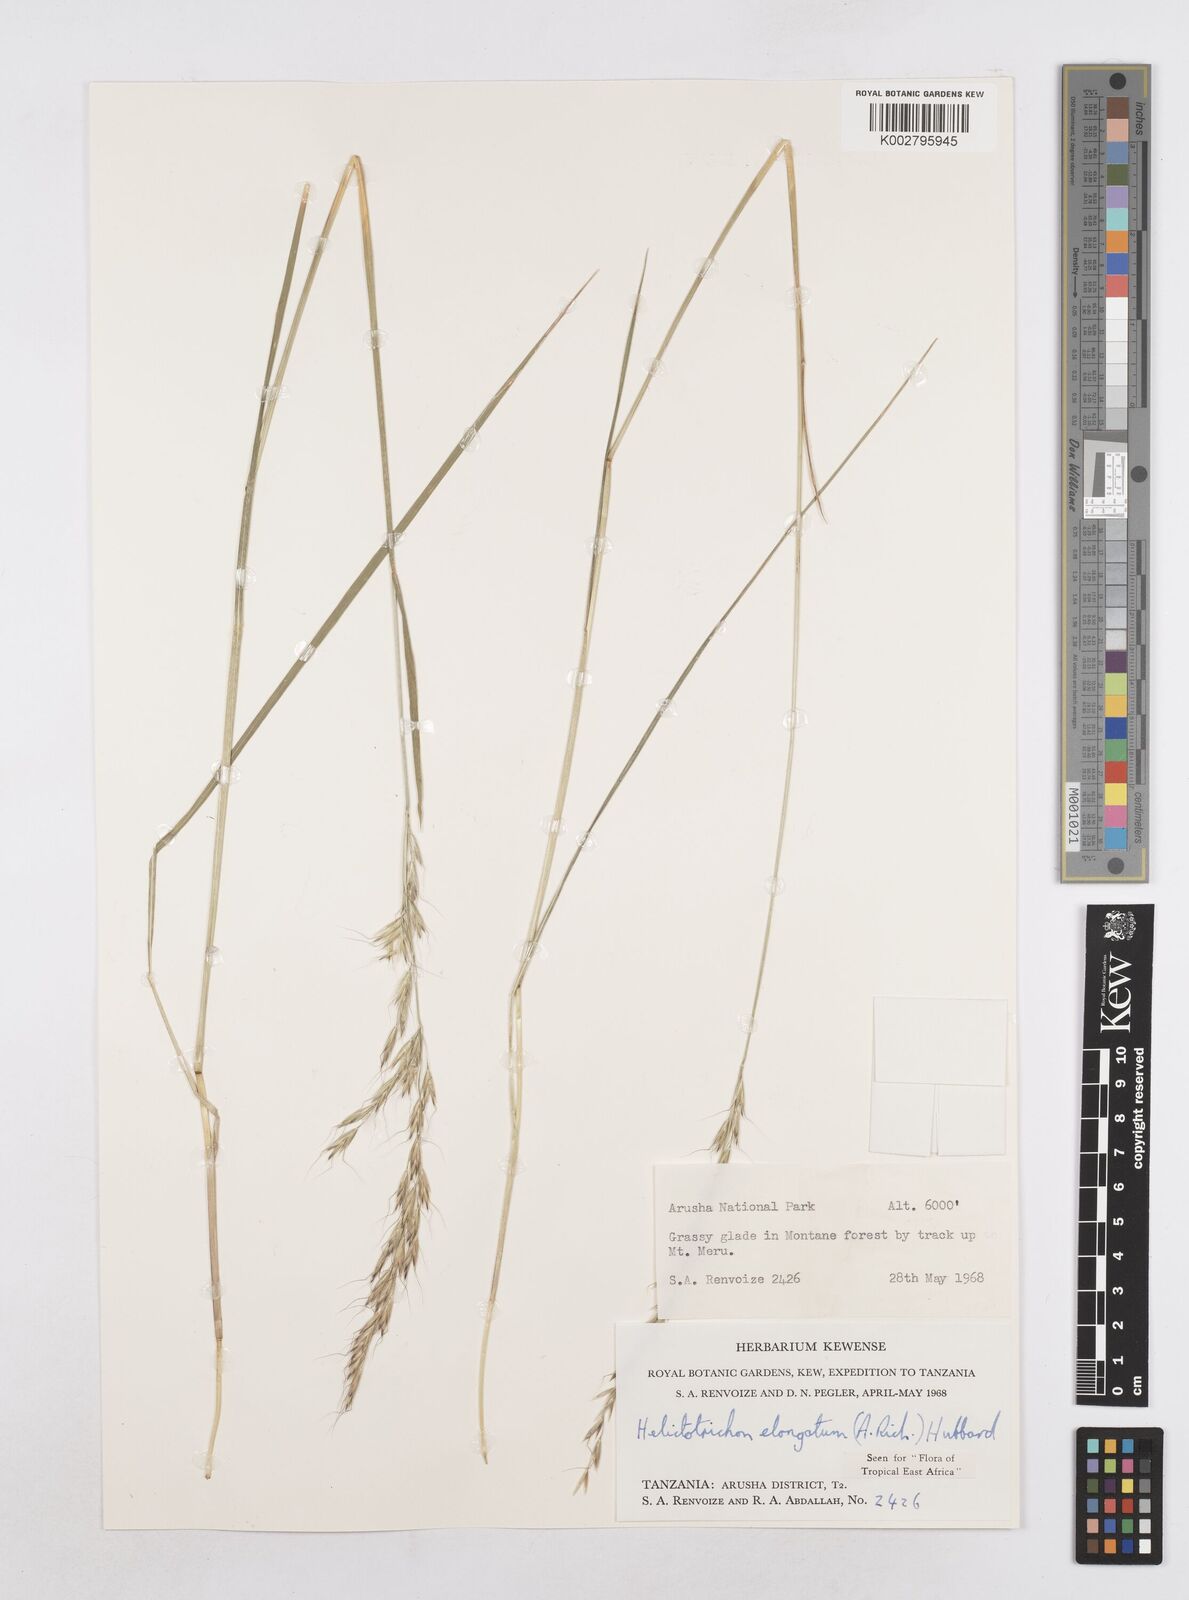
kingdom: Plantae
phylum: Tracheophyta
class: Liliopsida
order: Poales
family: Poaceae
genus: Trisetopsis
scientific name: Trisetopsis elongata
